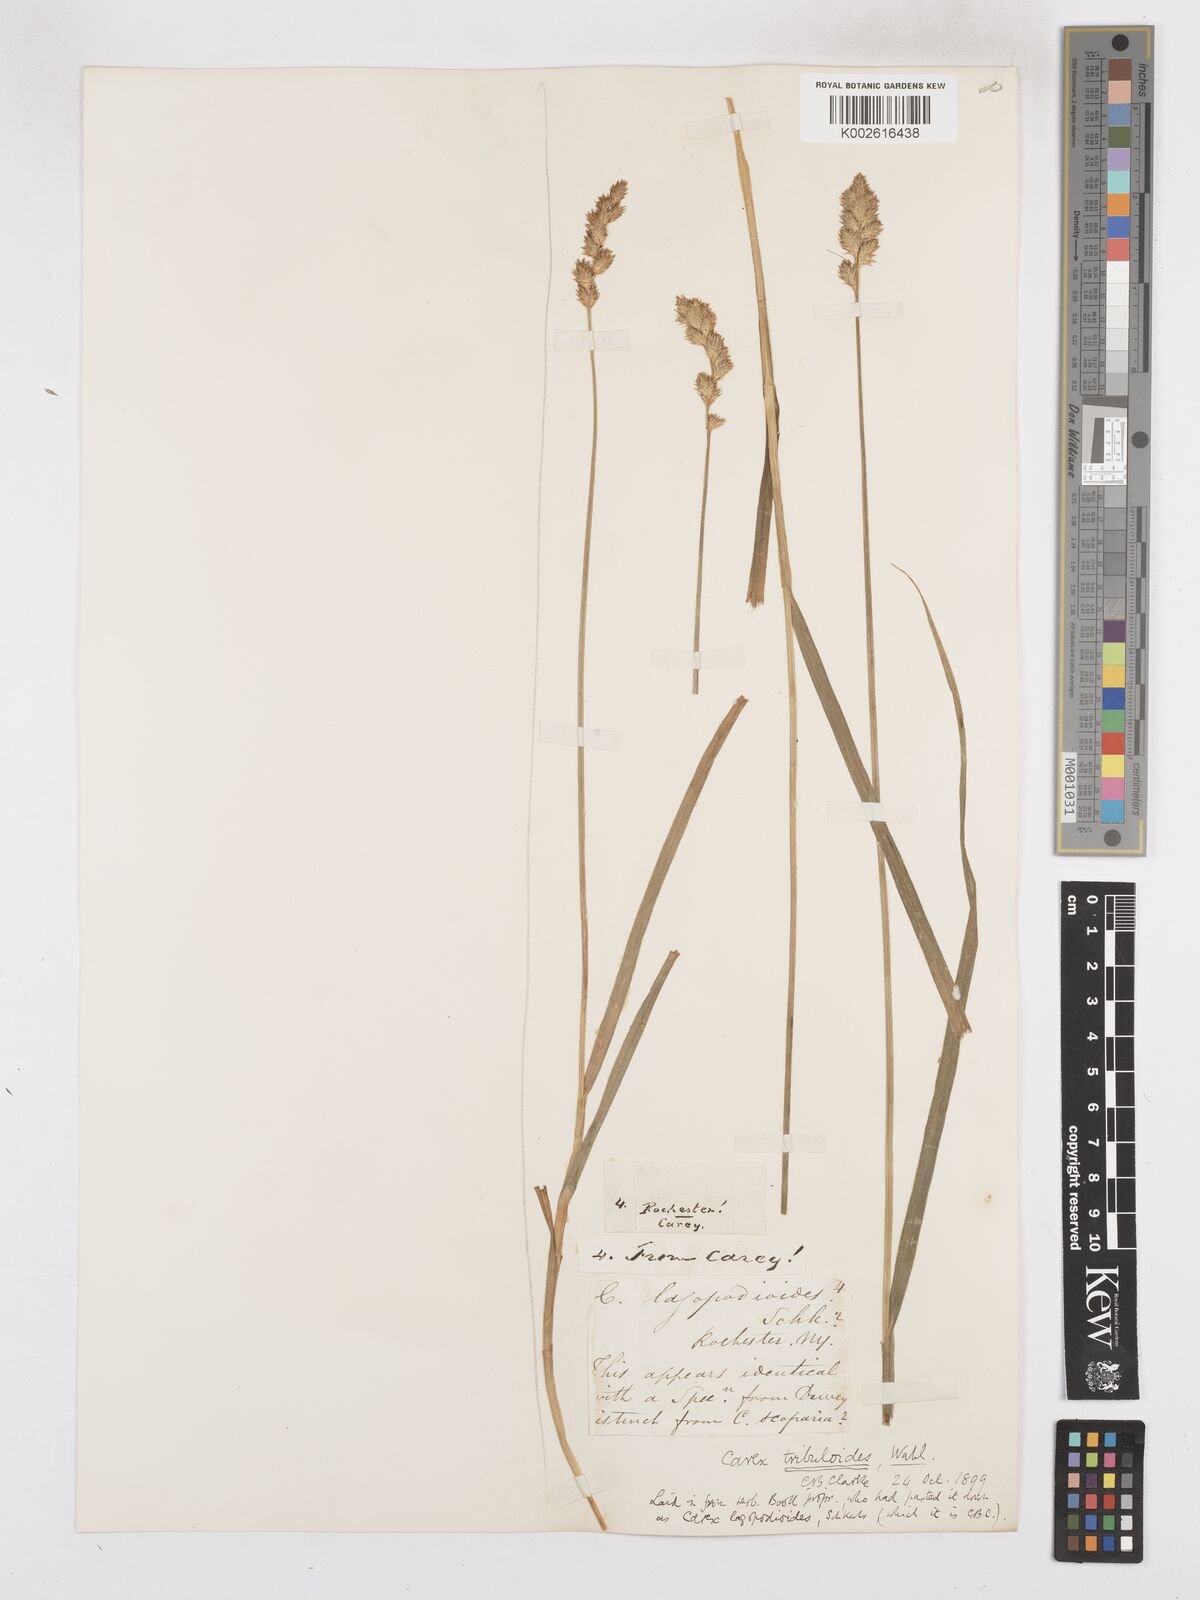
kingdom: Plantae
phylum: Tracheophyta
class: Liliopsida
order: Poales
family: Cyperaceae
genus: Carex
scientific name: Carex tribuloides
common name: Blunt broom sedge
